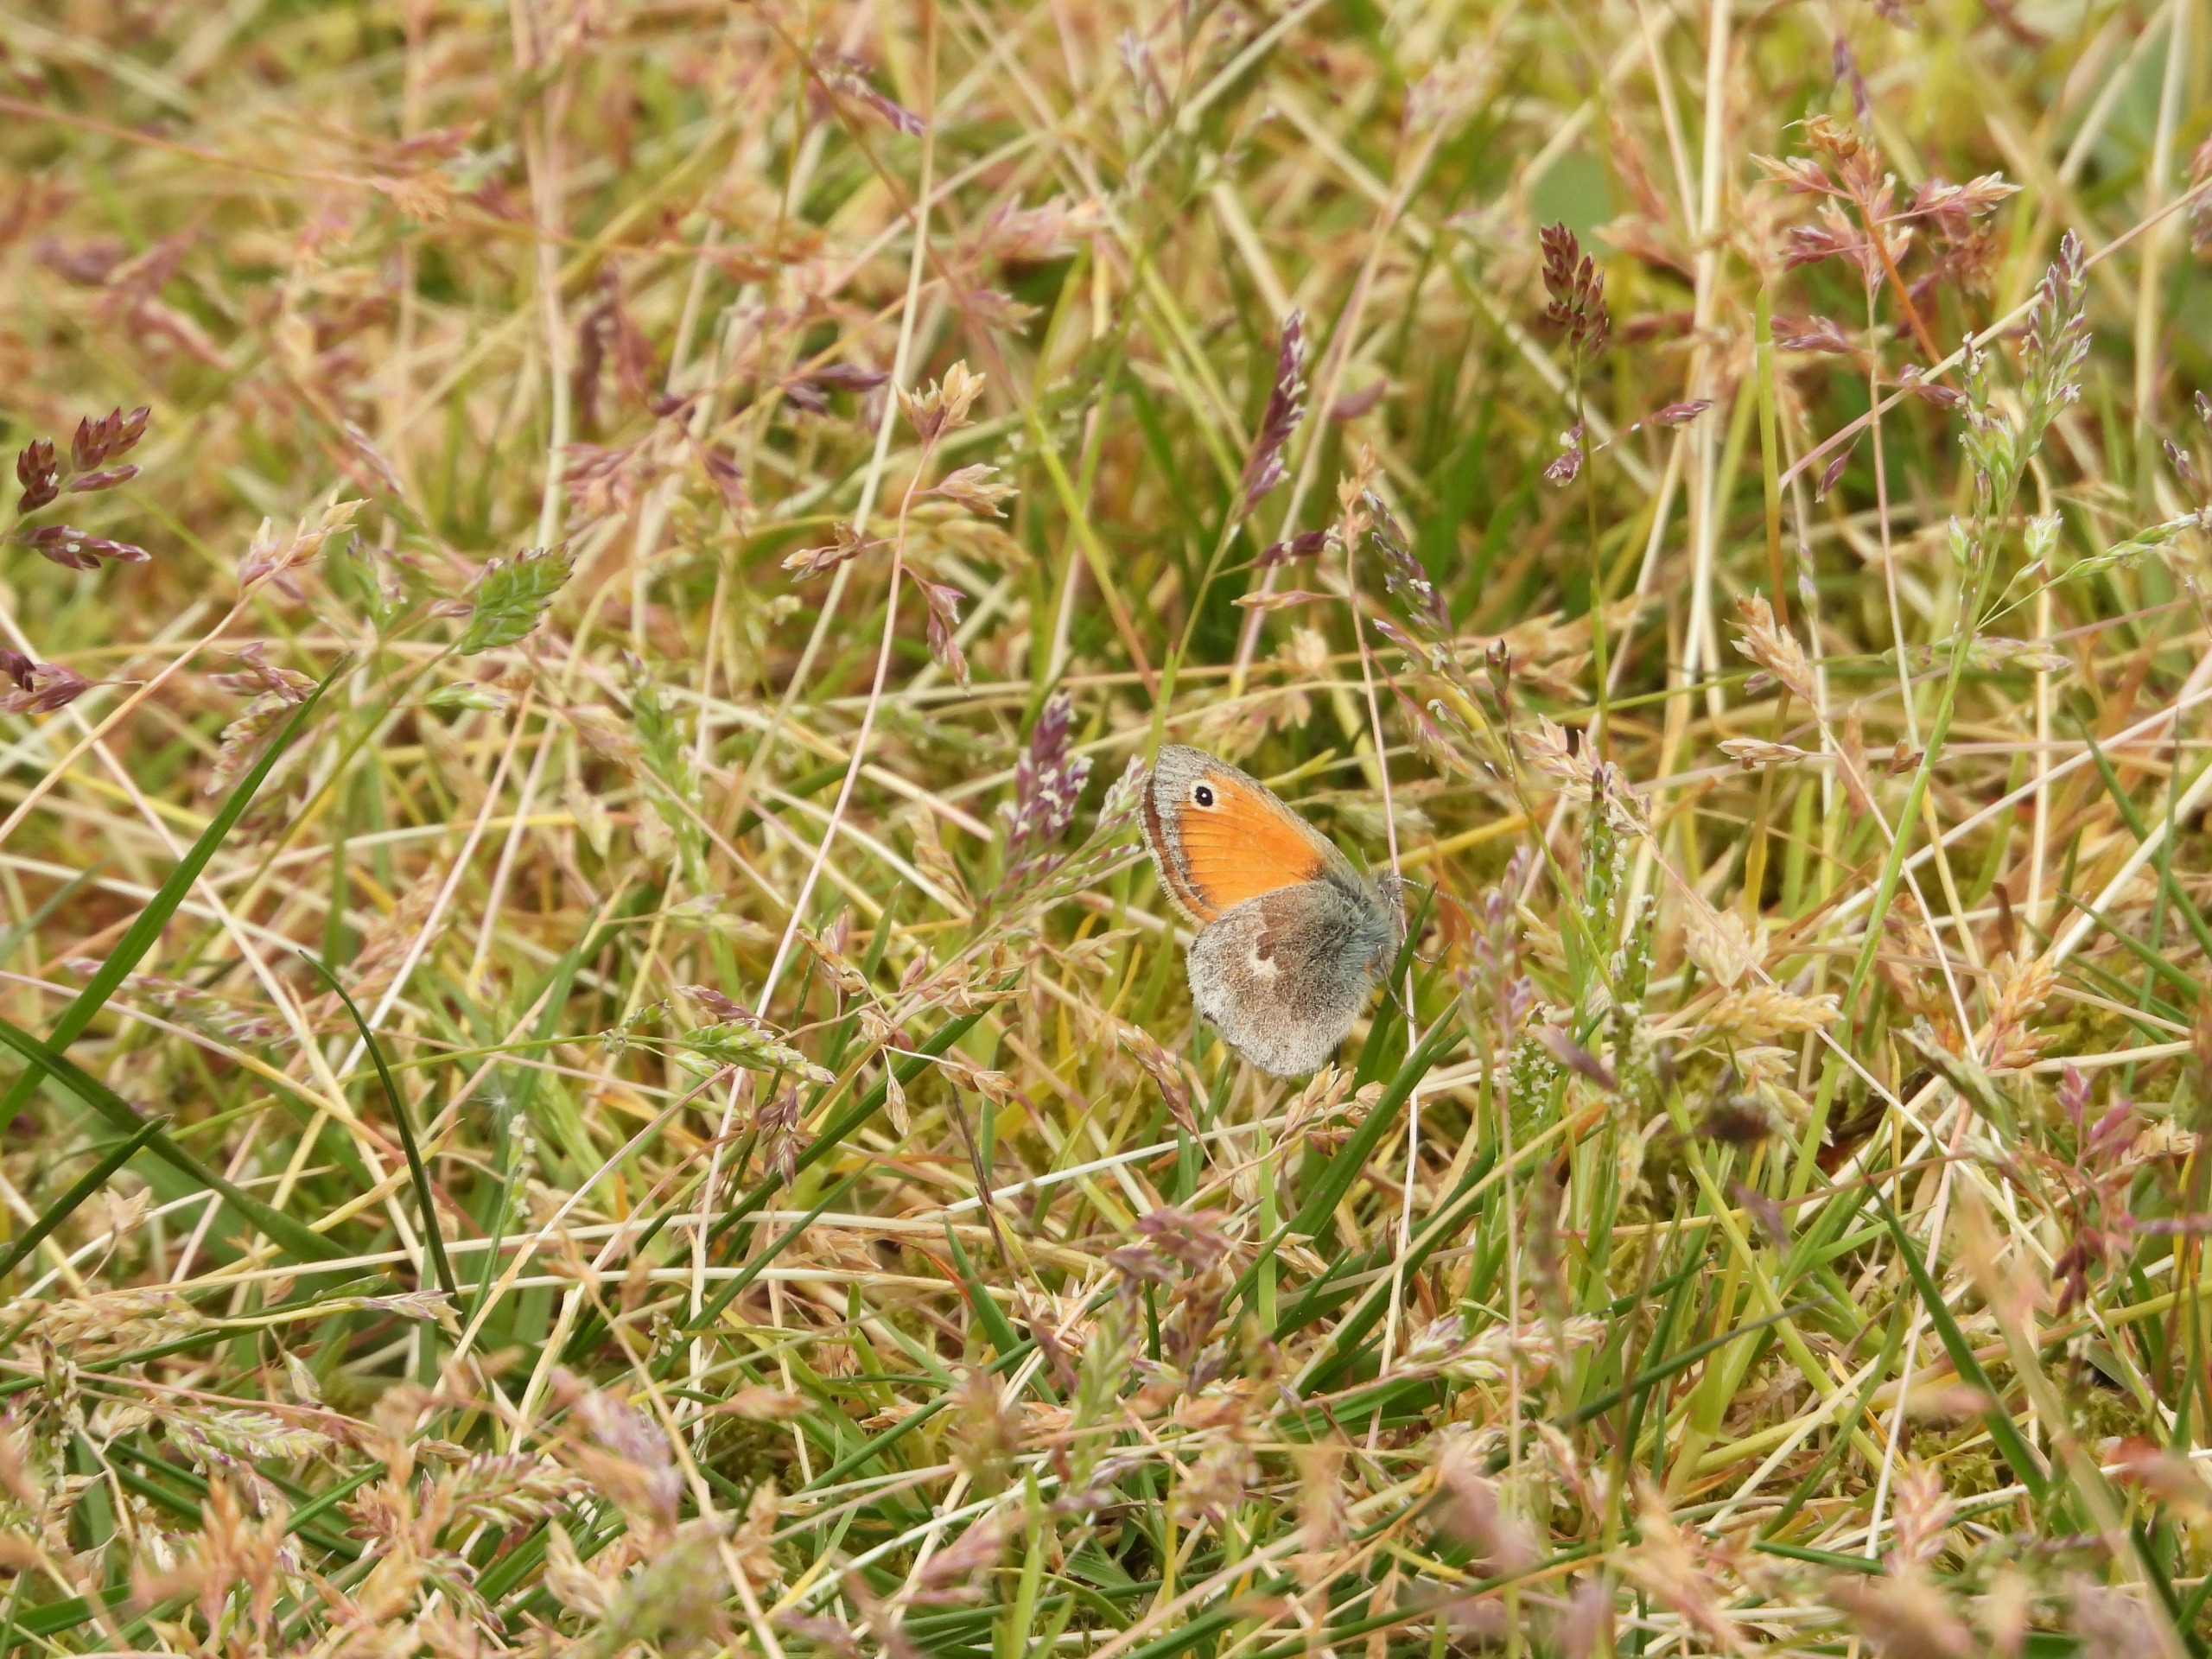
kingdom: Animalia
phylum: Arthropoda
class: Insecta
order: Lepidoptera
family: Nymphalidae
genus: Coenonympha
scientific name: Coenonympha pamphilus
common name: Okkergul randøje
